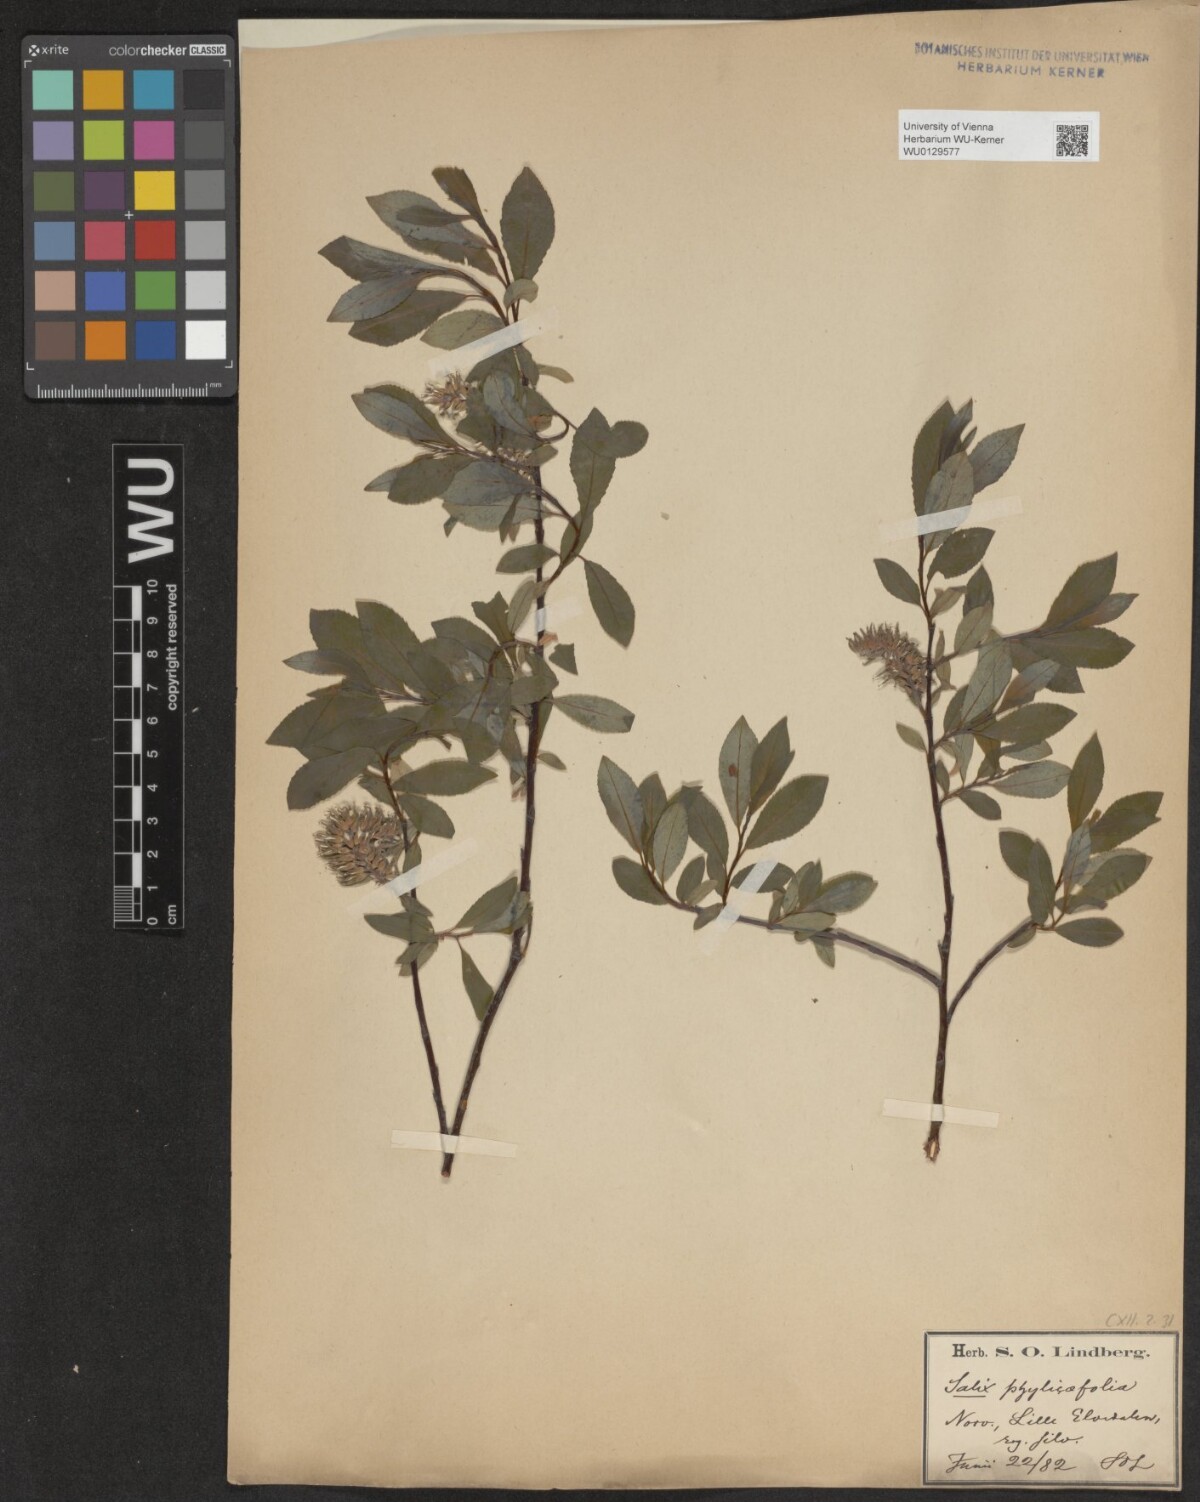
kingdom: Plantae
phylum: Tracheophyta
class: Magnoliopsida
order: Malpighiales
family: Salicaceae
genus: Salix
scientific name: Salix bicolor
